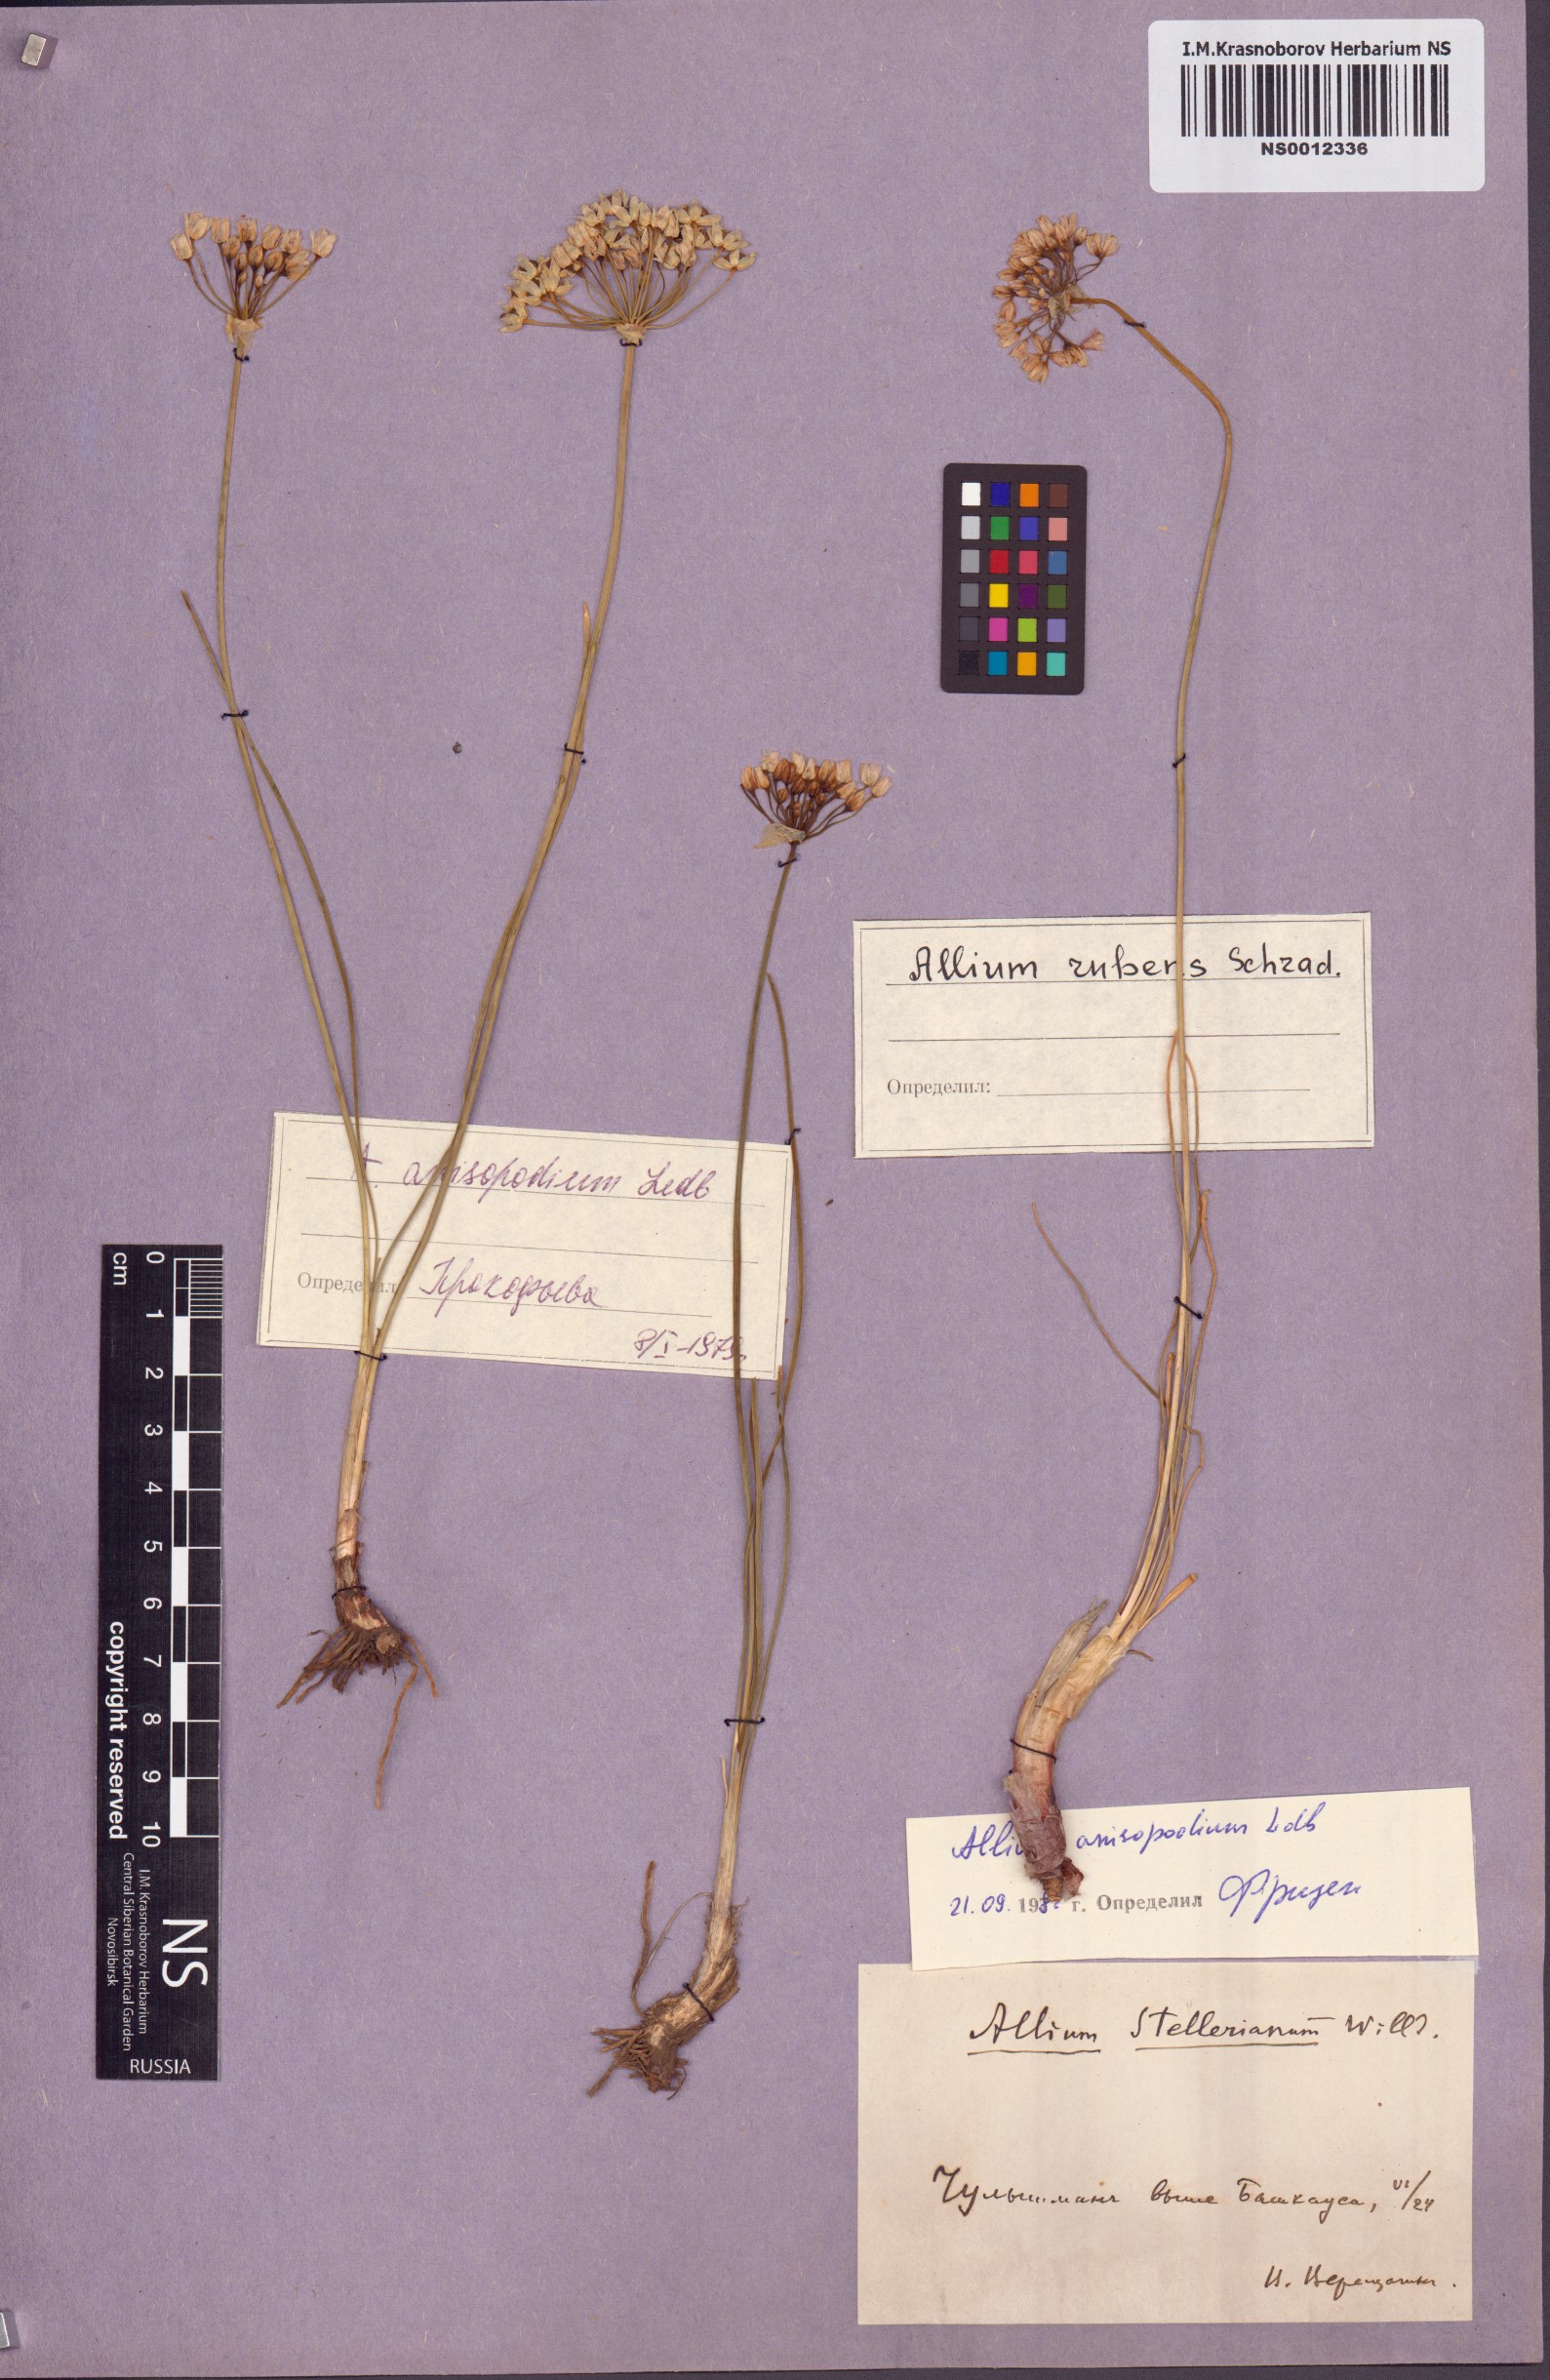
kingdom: Plantae
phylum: Tracheophyta
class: Liliopsida
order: Asparagales
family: Amaryllidaceae
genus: Allium
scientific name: Allium anisopodium
